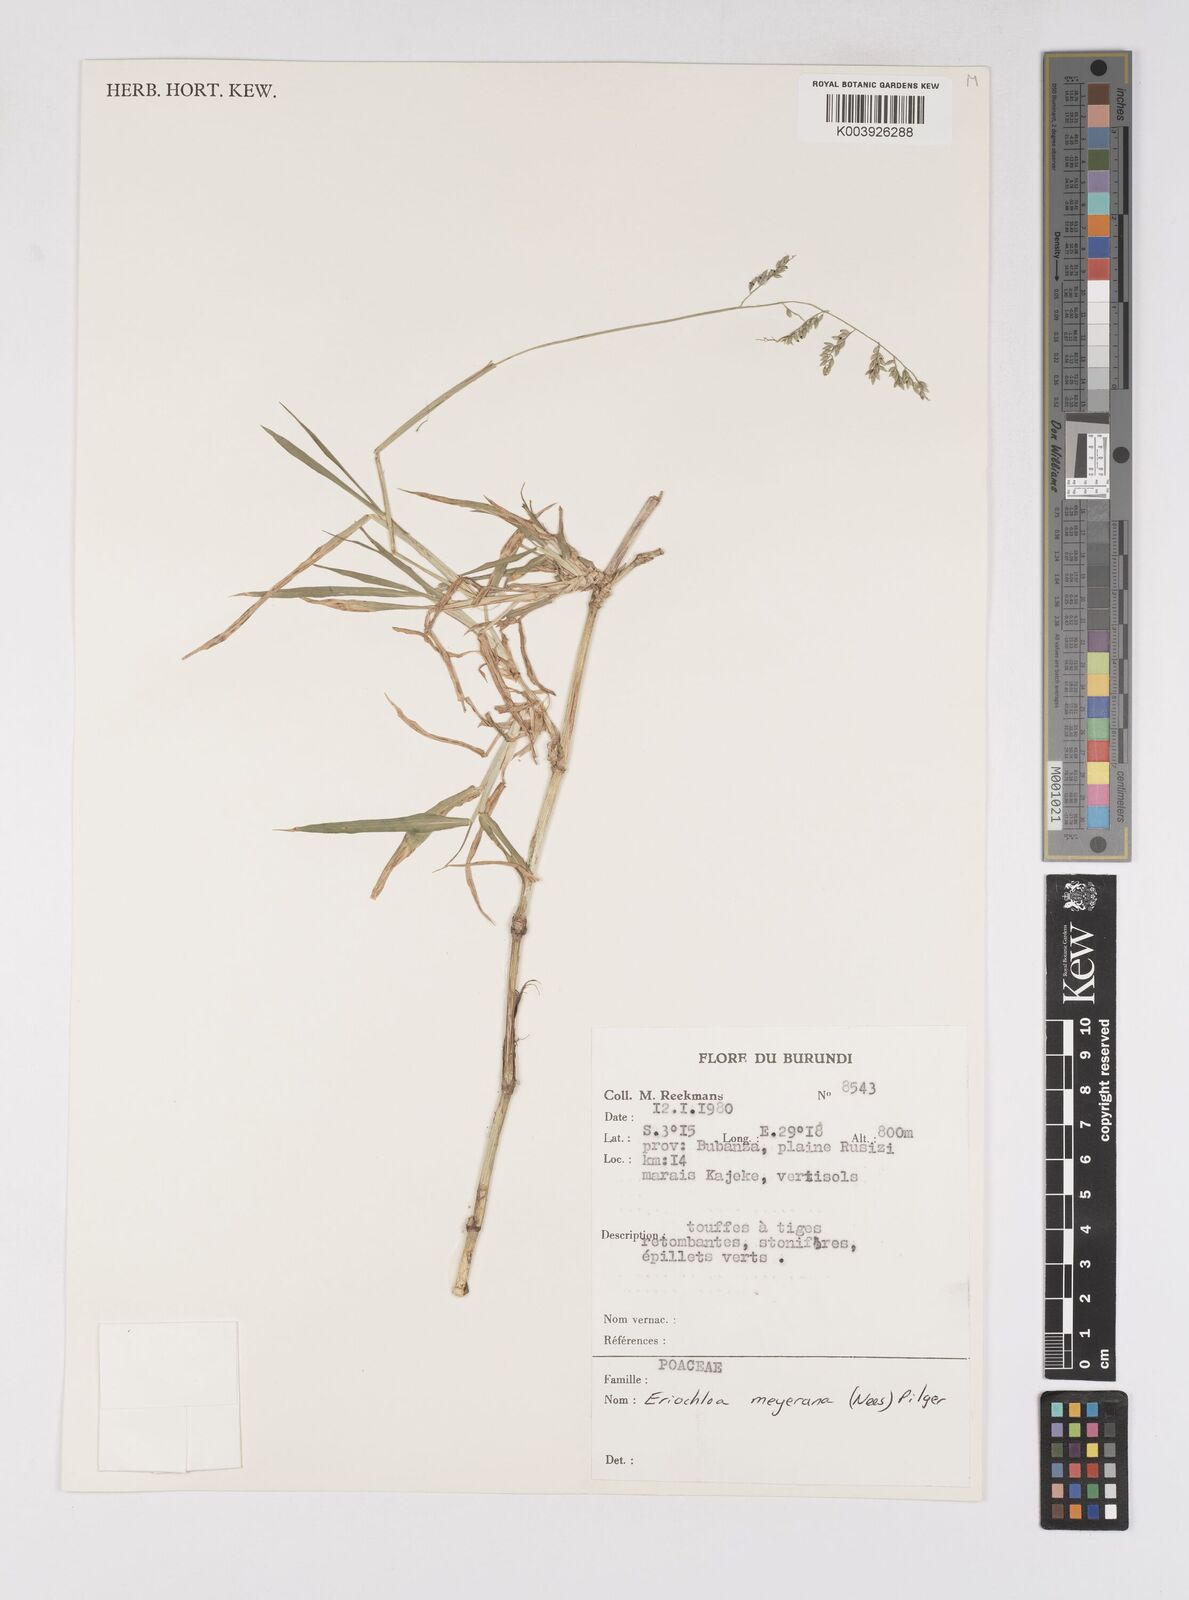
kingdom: Plantae
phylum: Tracheophyta
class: Liliopsida
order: Poales
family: Poaceae
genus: Eriochloa
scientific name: Eriochloa meyeriana
